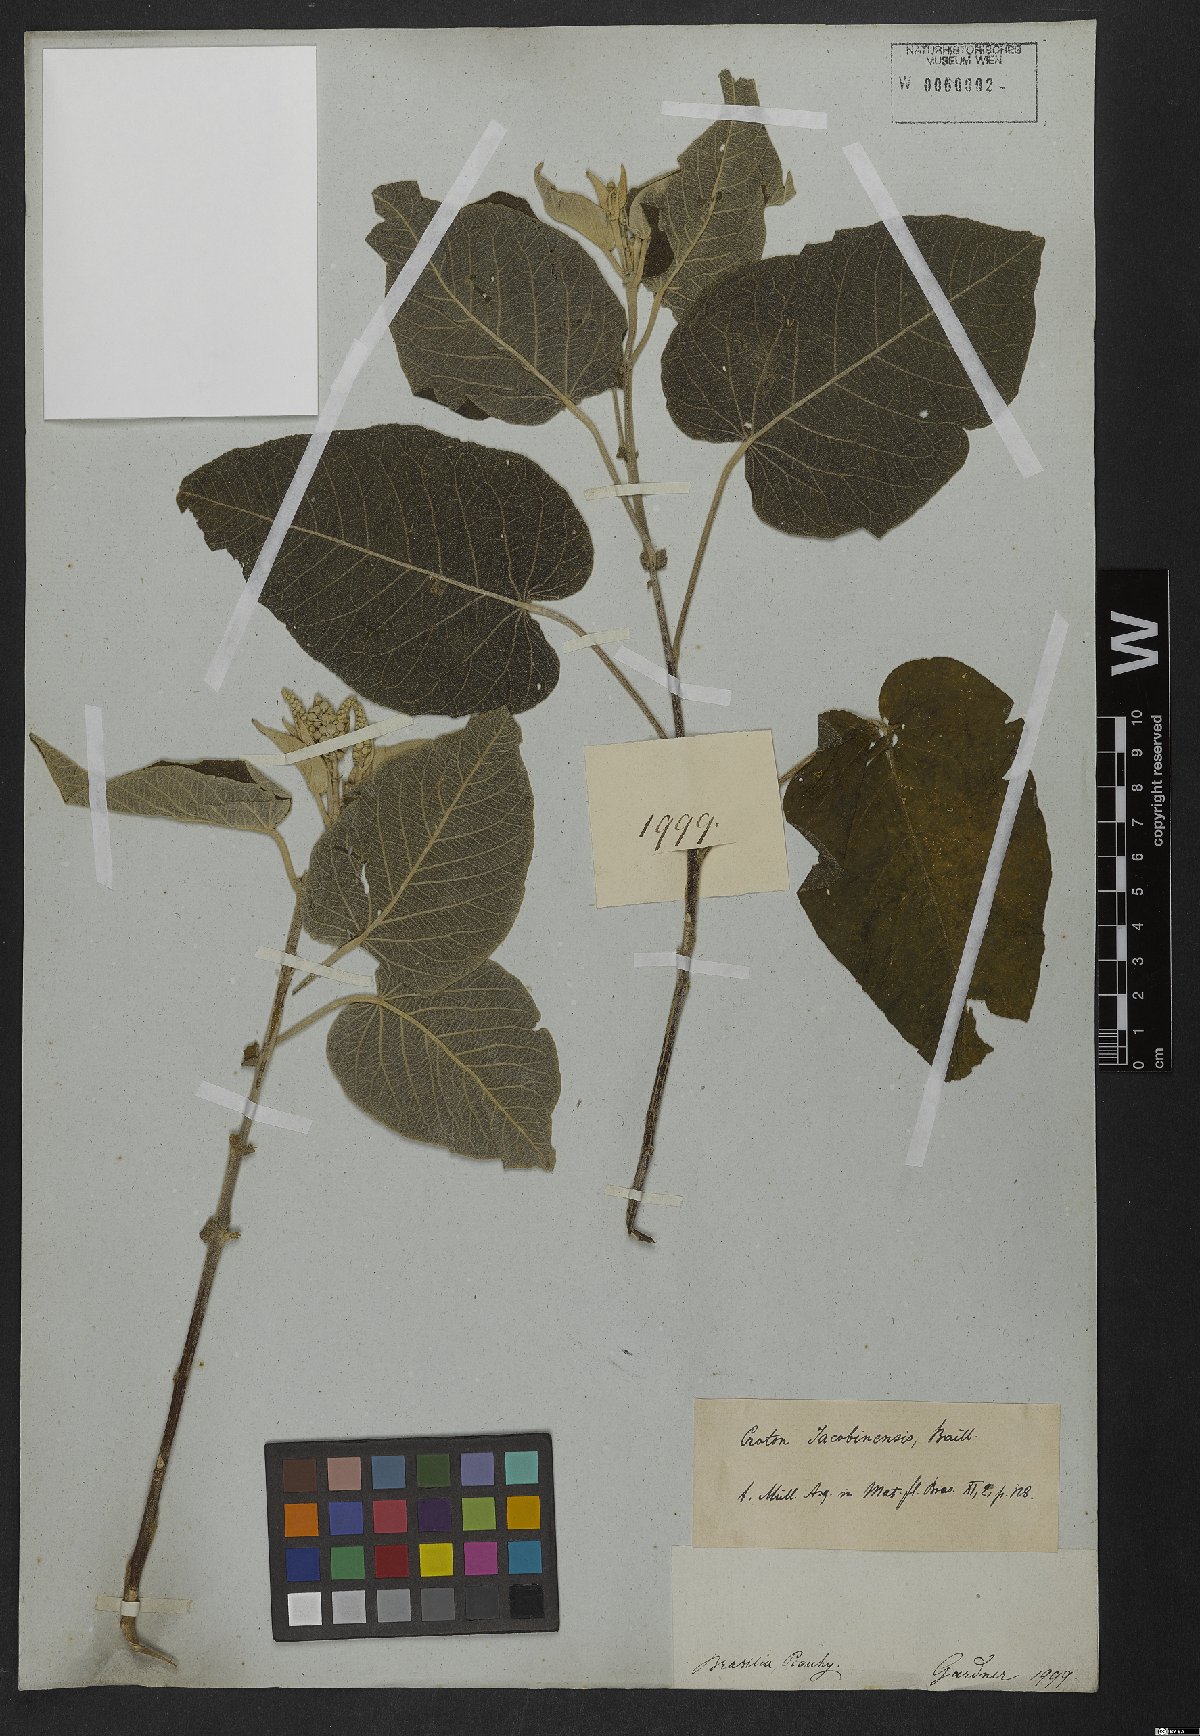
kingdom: Plantae
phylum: Tracheophyta
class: Magnoliopsida
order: Malpighiales
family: Euphorbiaceae
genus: Croton
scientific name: Croton jacobinensis
